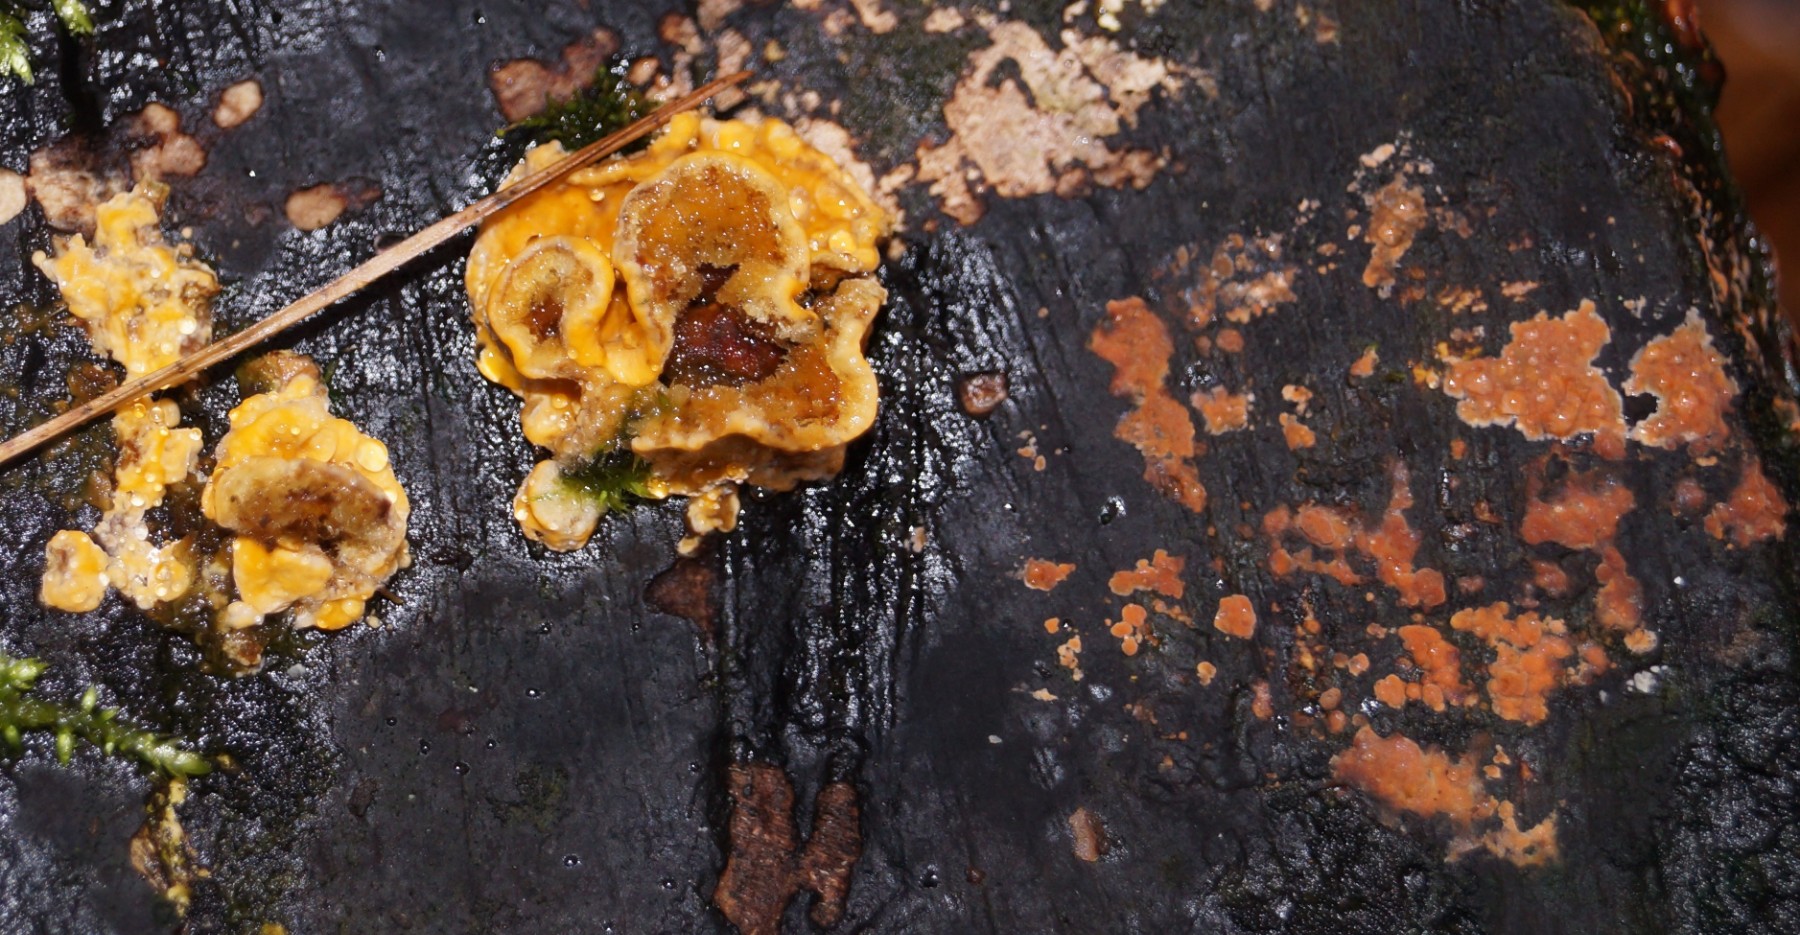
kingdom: Fungi
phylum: Basidiomycota
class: Agaricomycetes
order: Russulales
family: Stereaceae
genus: Stereum
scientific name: Stereum hirsutum
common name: håret lædersvamp
